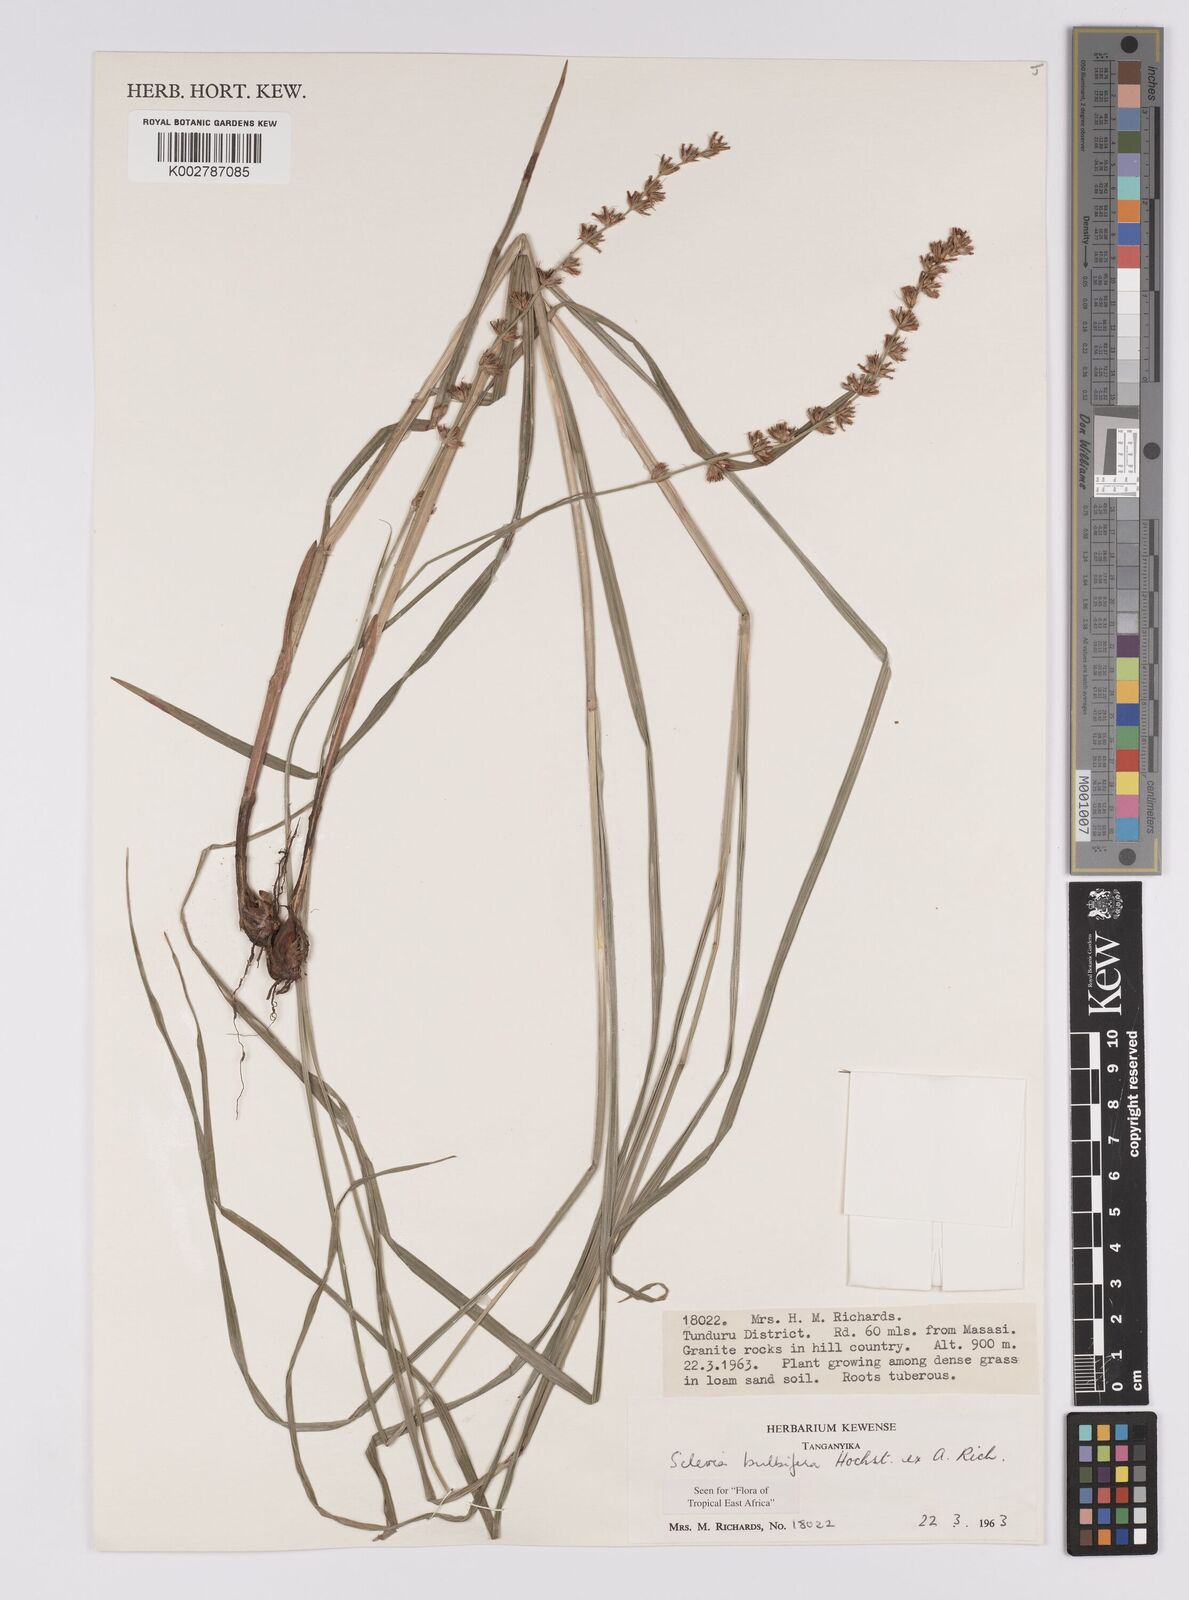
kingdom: Plantae
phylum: Tracheophyta
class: Liliopsida
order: Poales
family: Cyperaceae
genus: Scleria
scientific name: Scleria bulbifera
